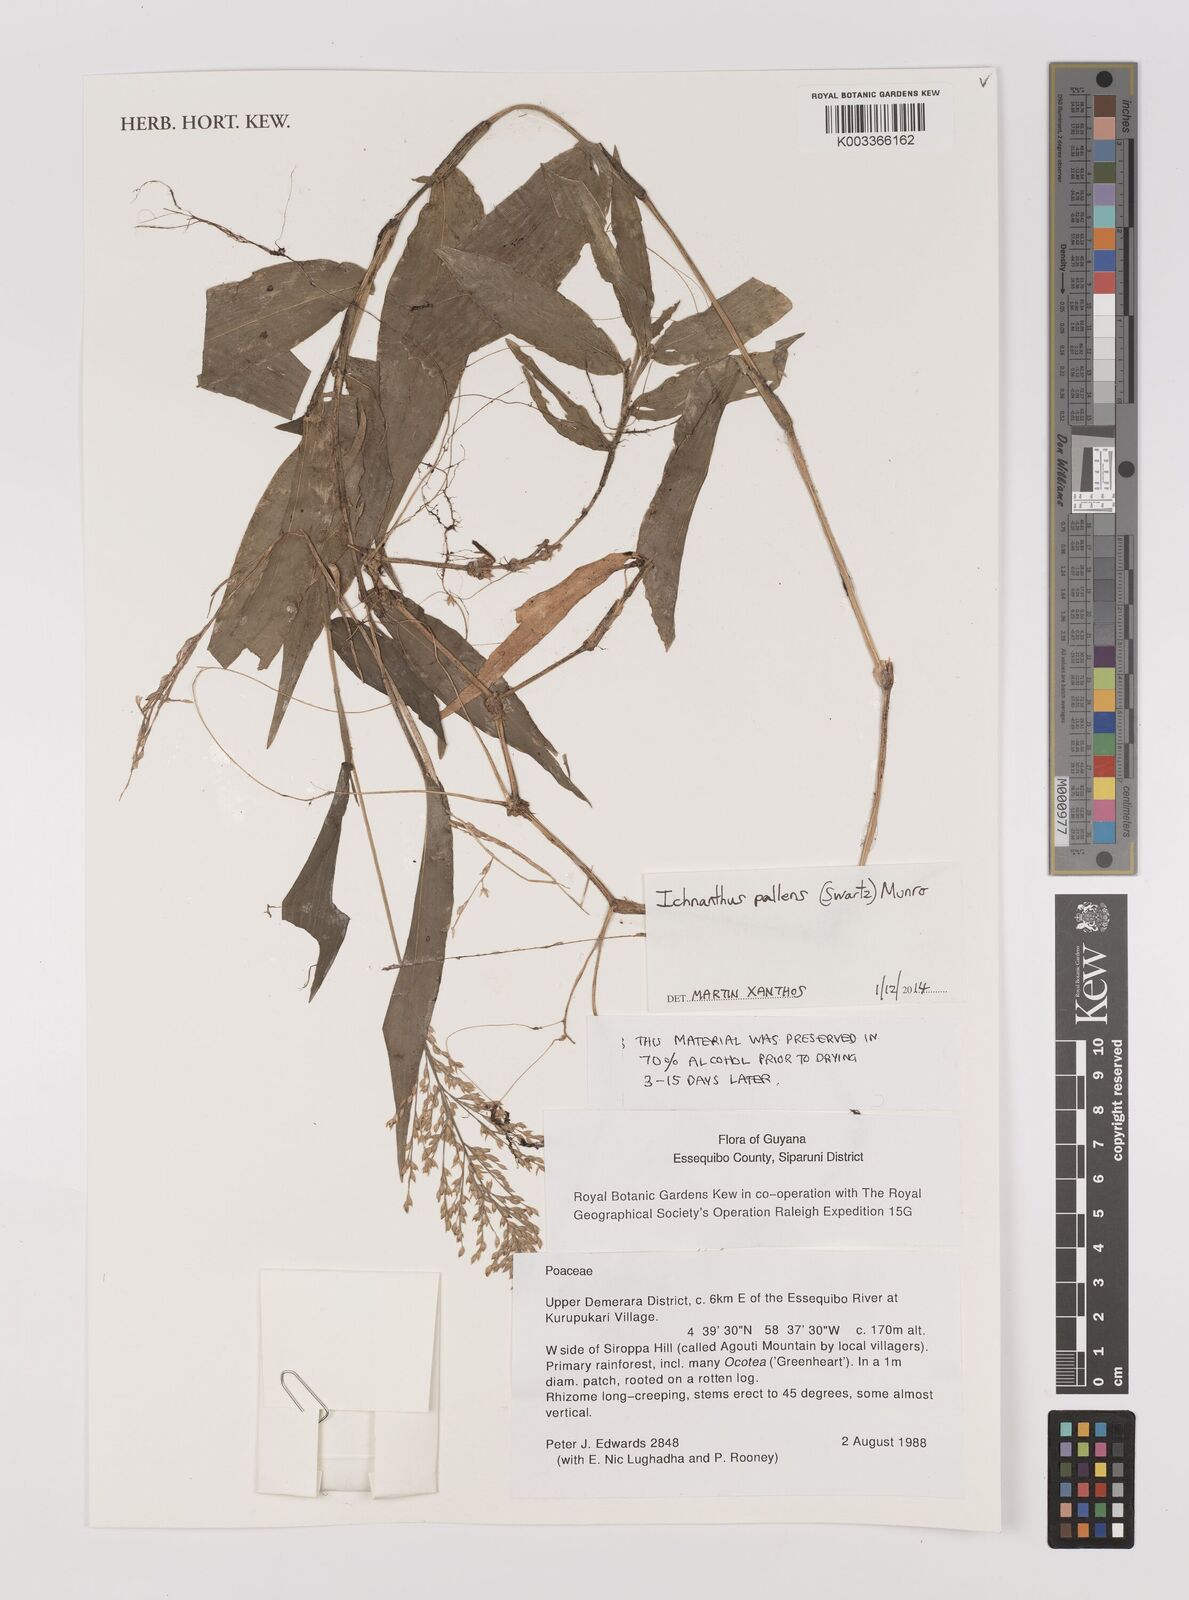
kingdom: Plantae
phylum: Tracheophyta
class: Liliopsida
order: Poales
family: Poaceae
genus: Ichnanthus
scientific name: Ichnanthus pallens
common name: Water grass
